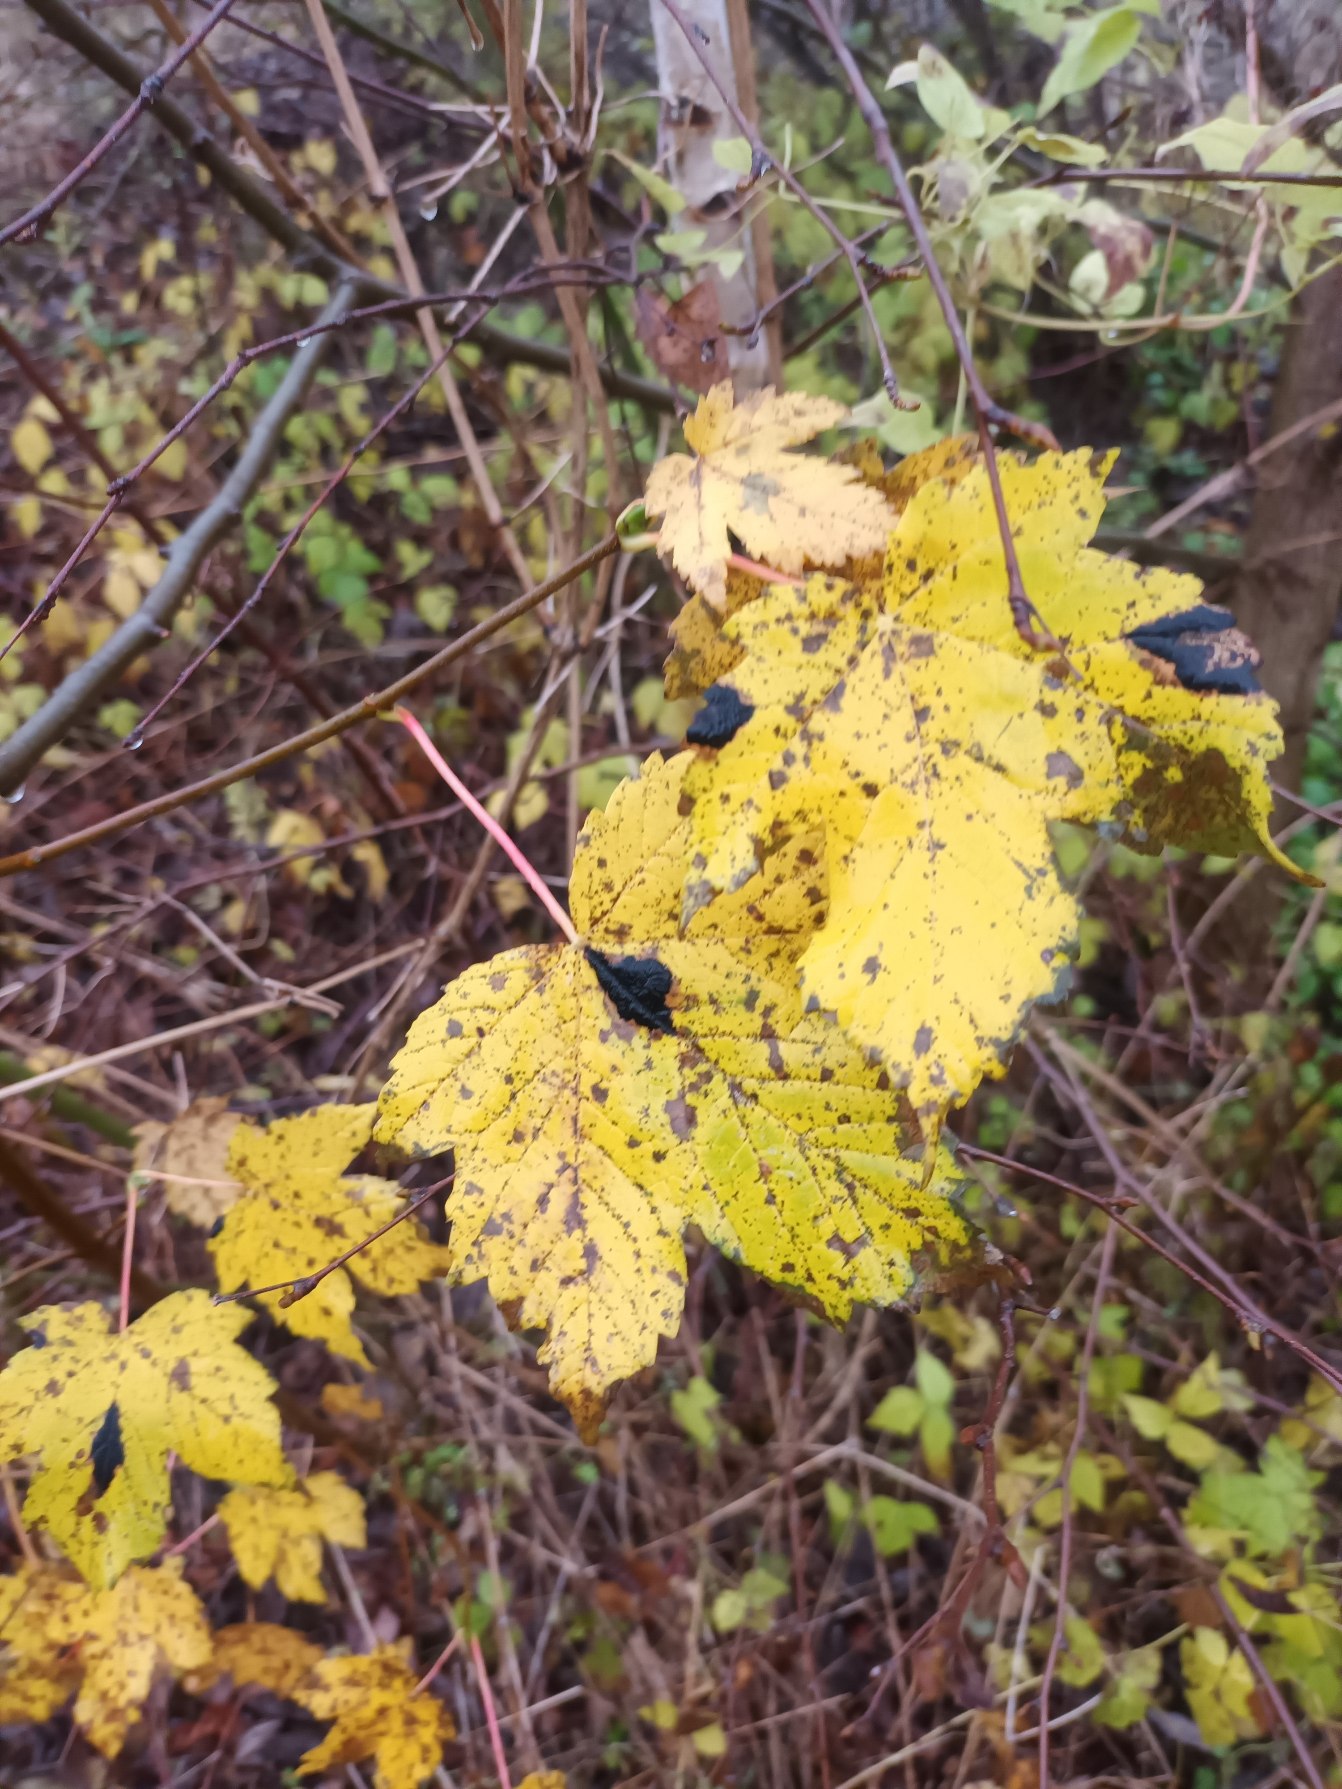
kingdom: Plantae
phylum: Tracheophyta
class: Magnoliopsida
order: Sapindales
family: Sapindaceae
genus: Acer
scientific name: Acer pseudoplatanus
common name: Ahorn
